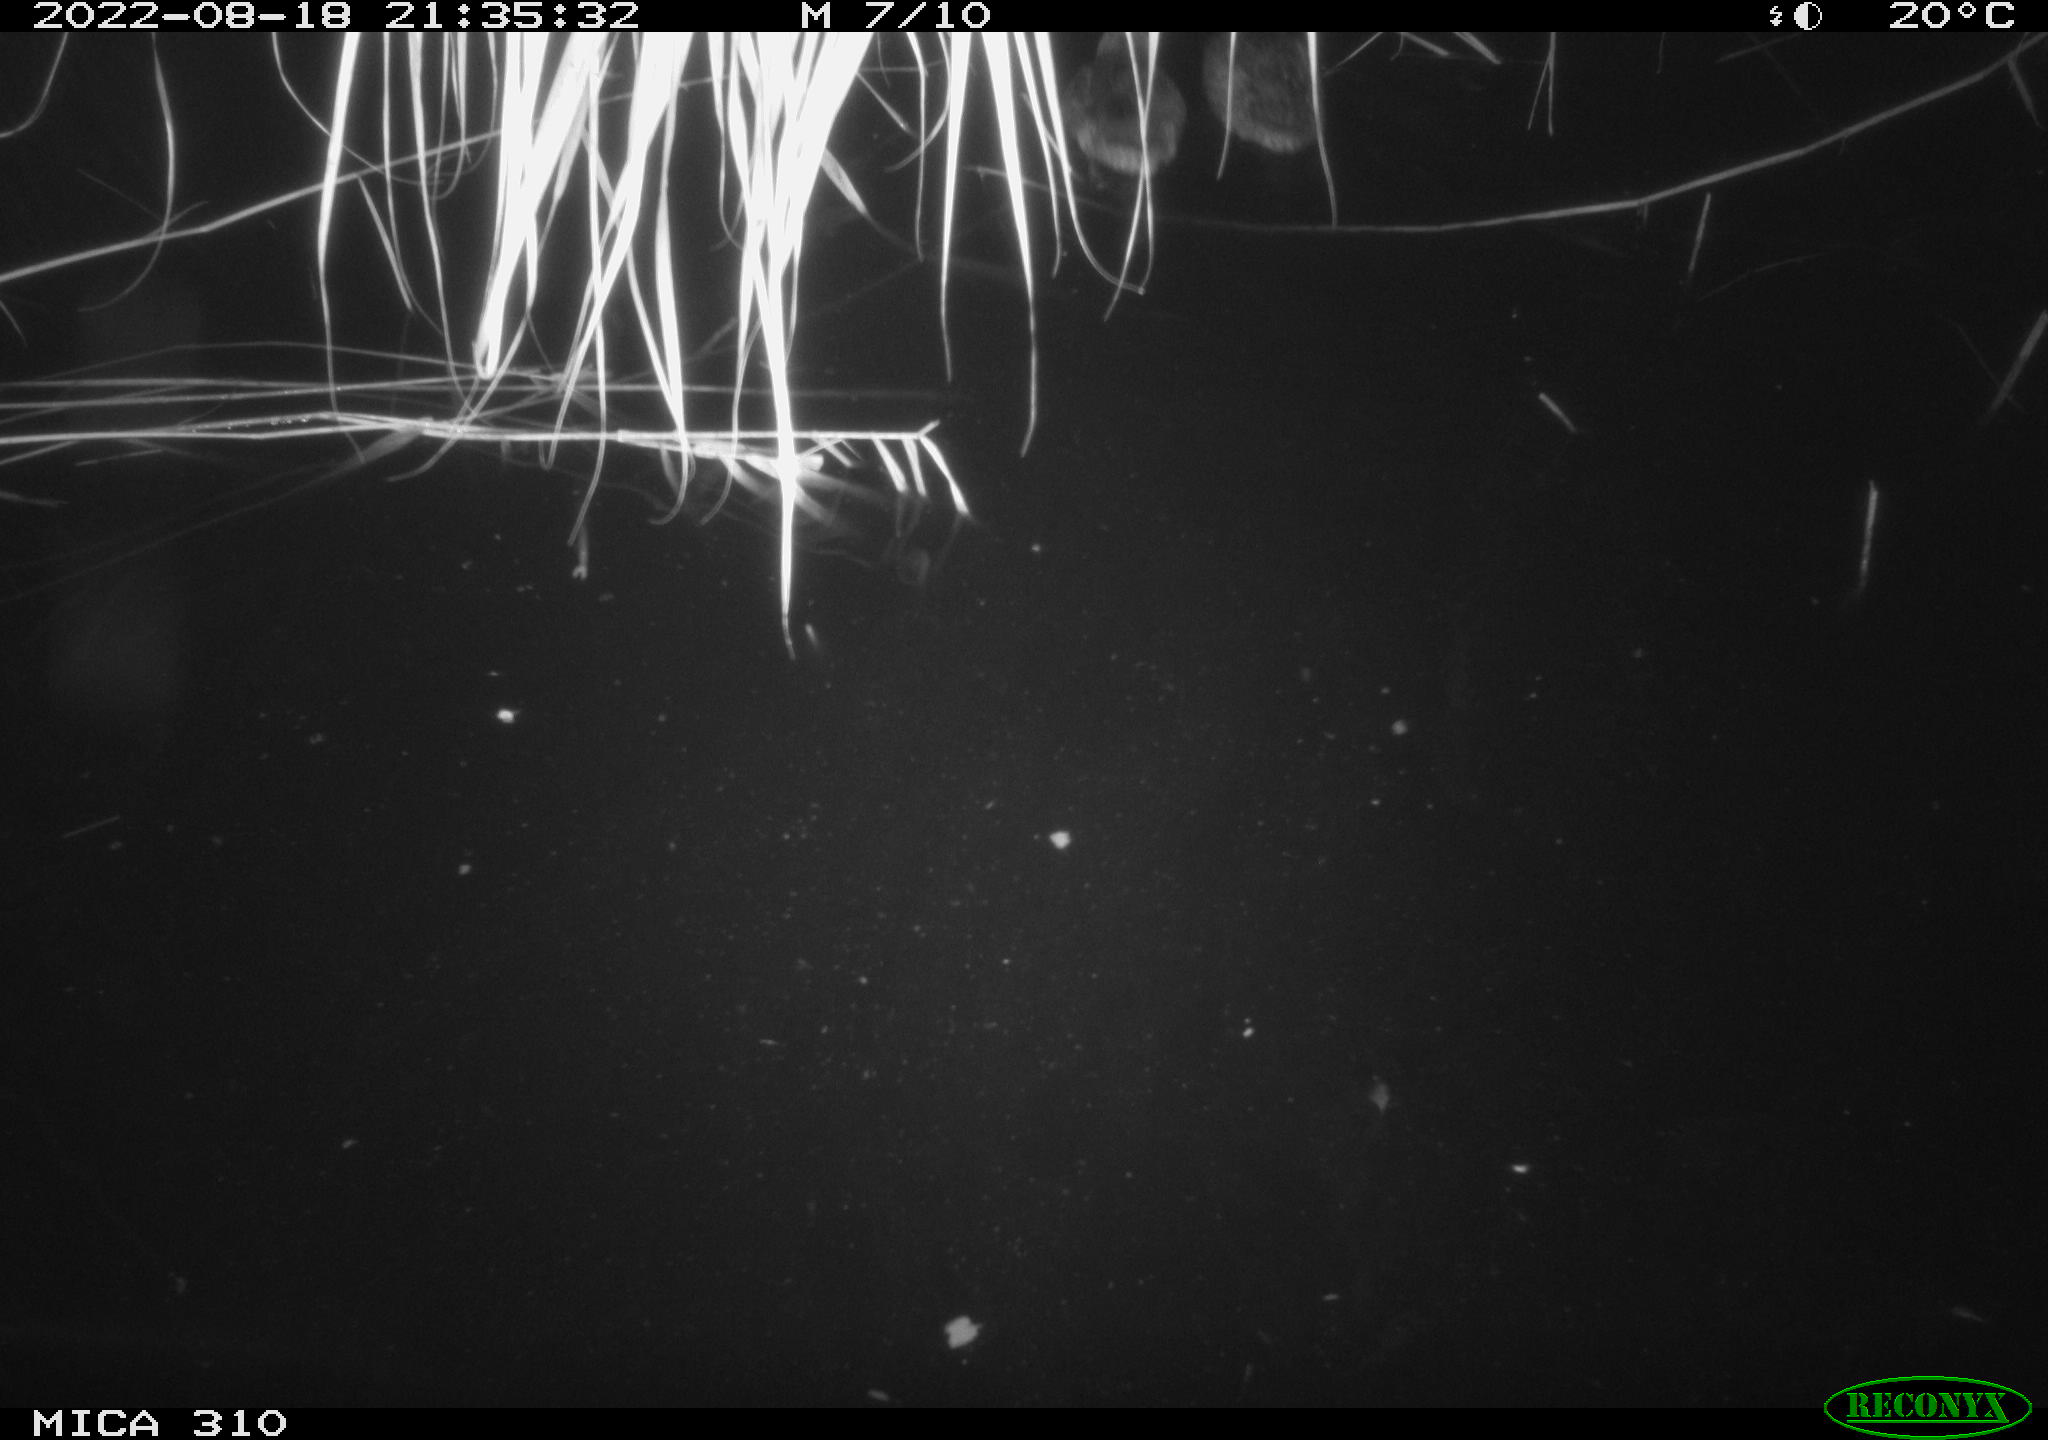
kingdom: Animalia
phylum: Chordata
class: Aves
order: Anseriformes
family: Anatidae
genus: Anas
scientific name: Anas platyrhynchos
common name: Mallard
